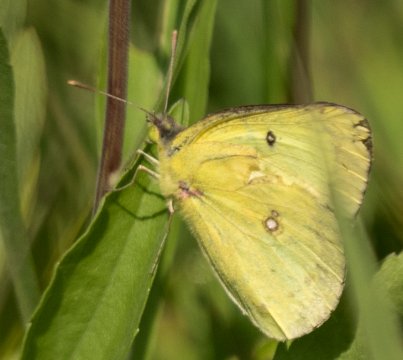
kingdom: Animalia
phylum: Arthropoda
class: Insecta
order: Lepidoptera
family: Pieridae
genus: Colias
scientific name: Colias philodice
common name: Clouded Sulphur
